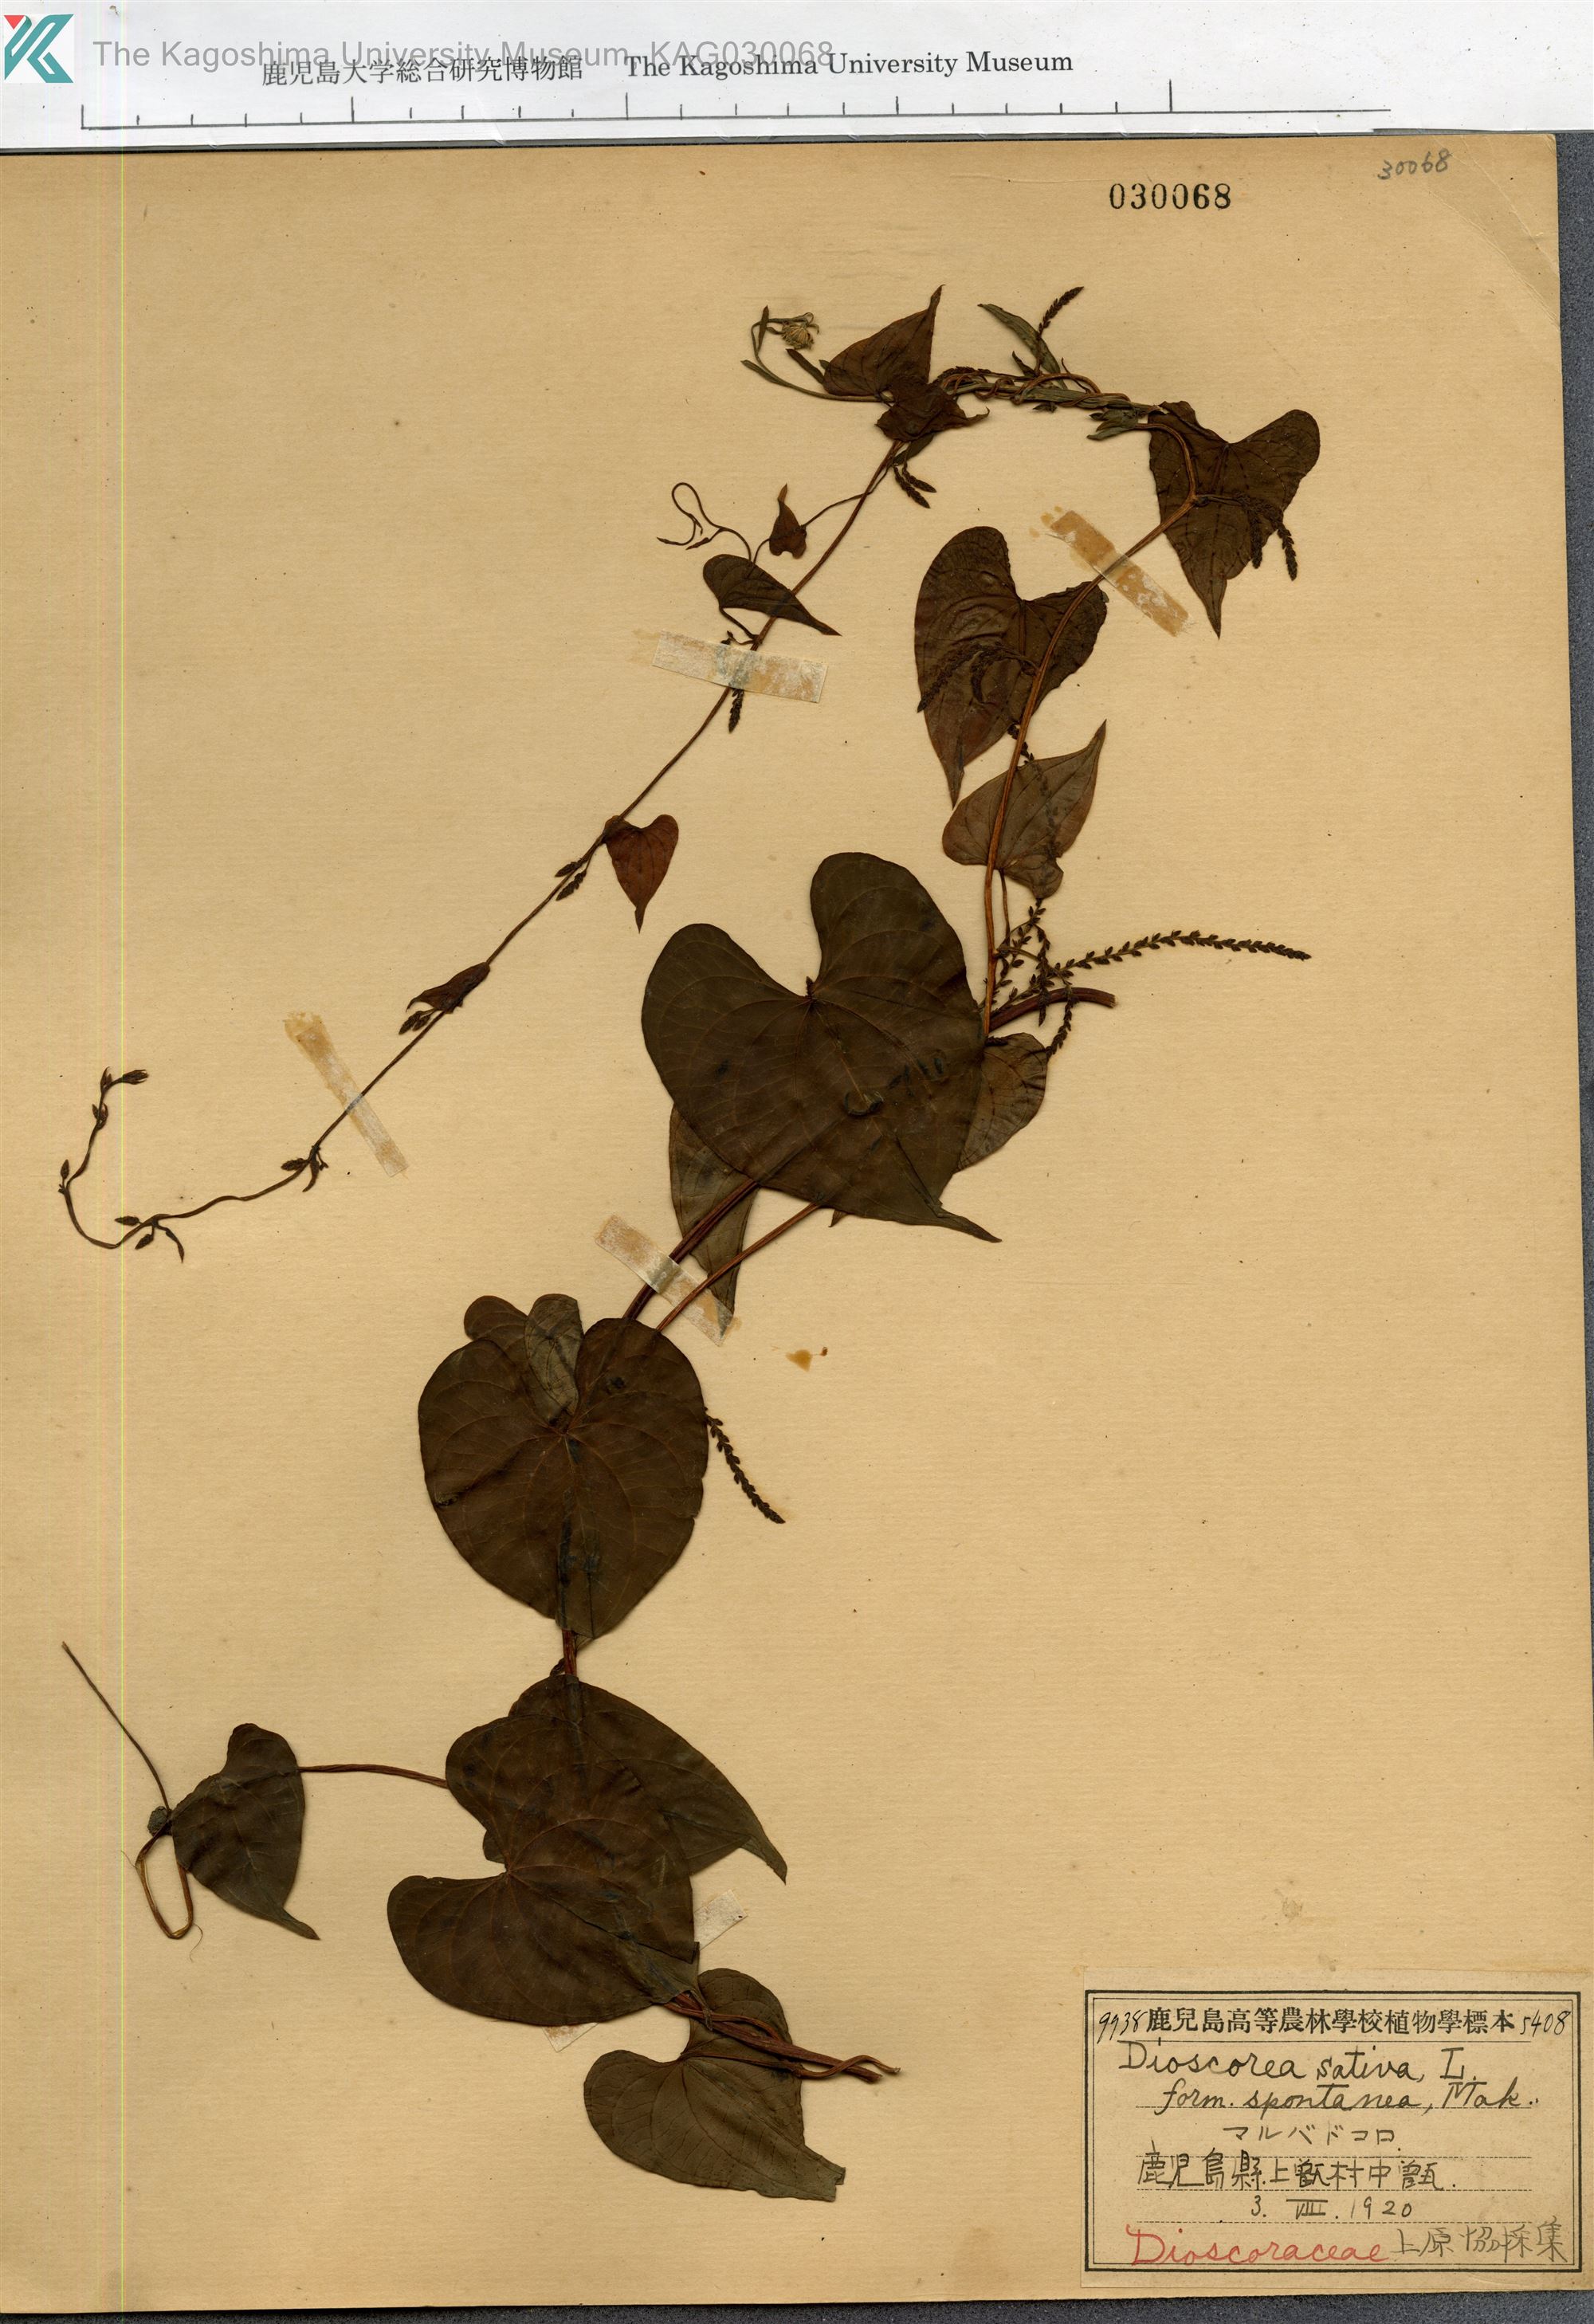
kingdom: Plantae
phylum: Tracheophyta
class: Liliopsida
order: Dioscoreales
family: Dioscoreaceae
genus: Dioscorea
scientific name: Dioscorea bulbifera
